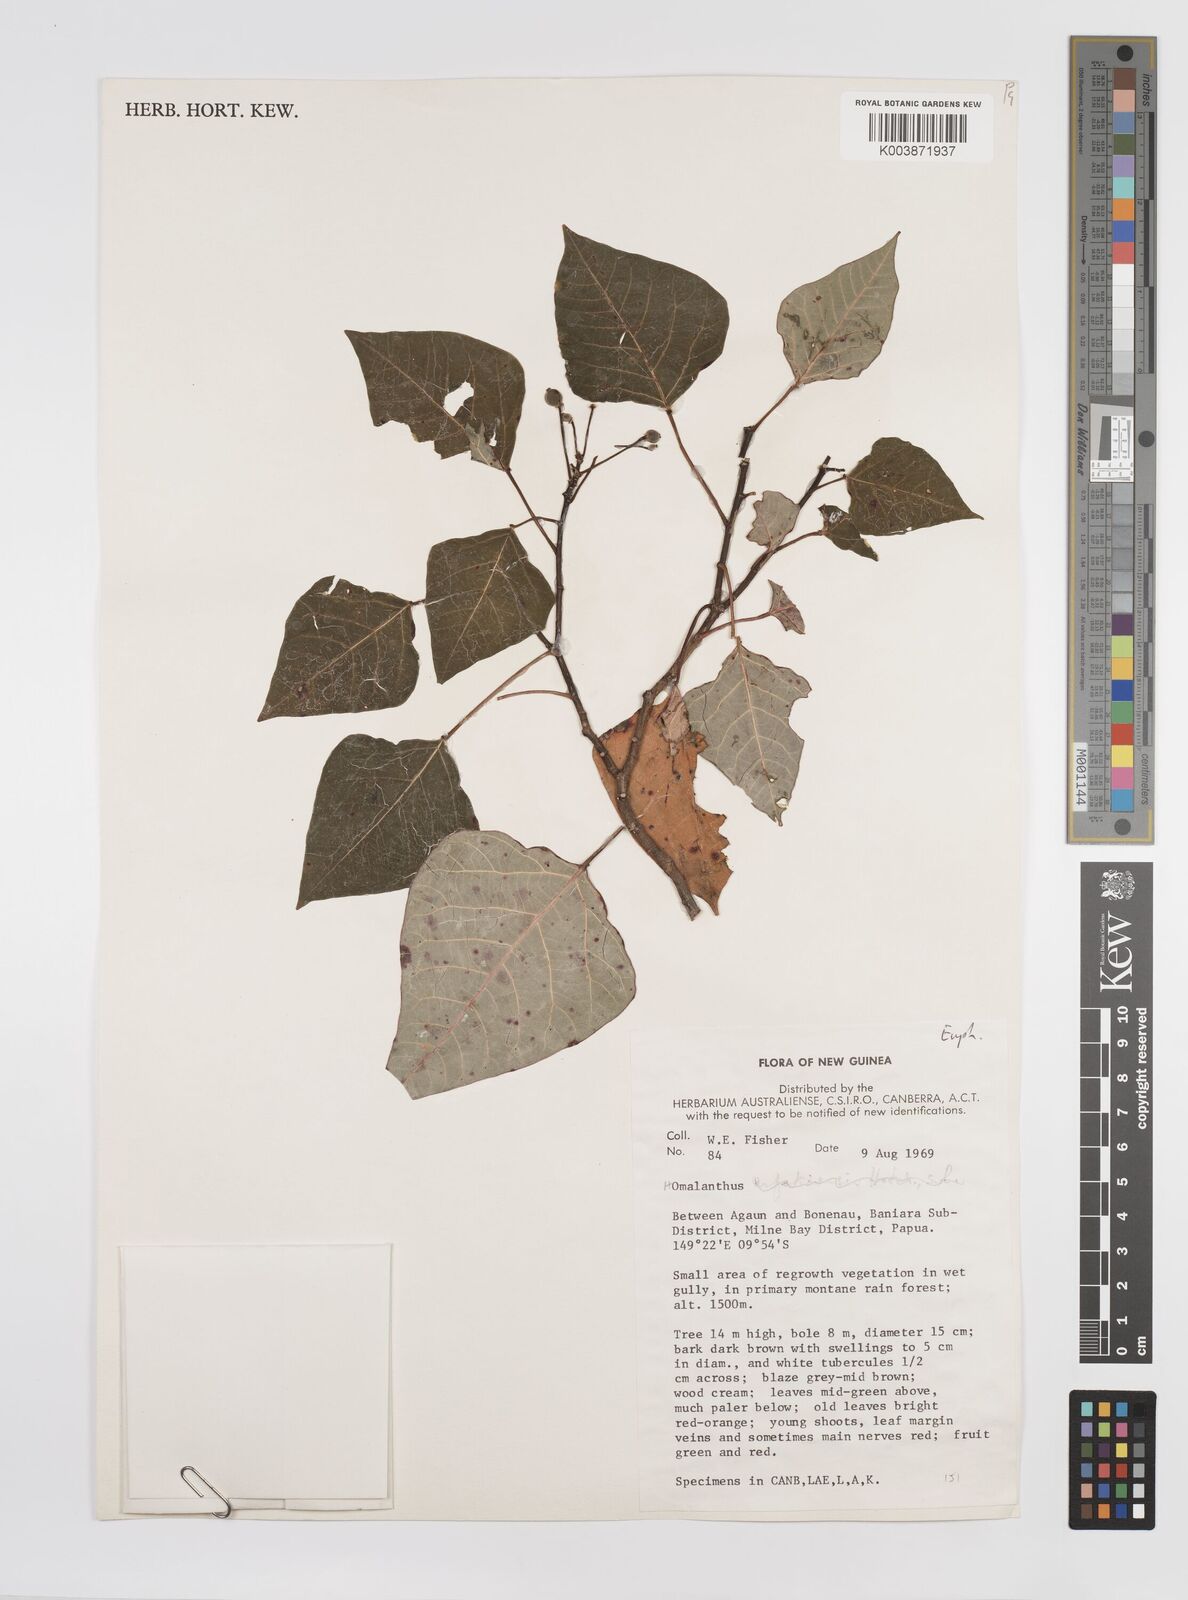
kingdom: Plantae
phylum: Tracheophyta
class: Magnoliopsida
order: Malpighiales
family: Euphorbiaceae
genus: Homalanthus
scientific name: Homalanthus novoguineensis
